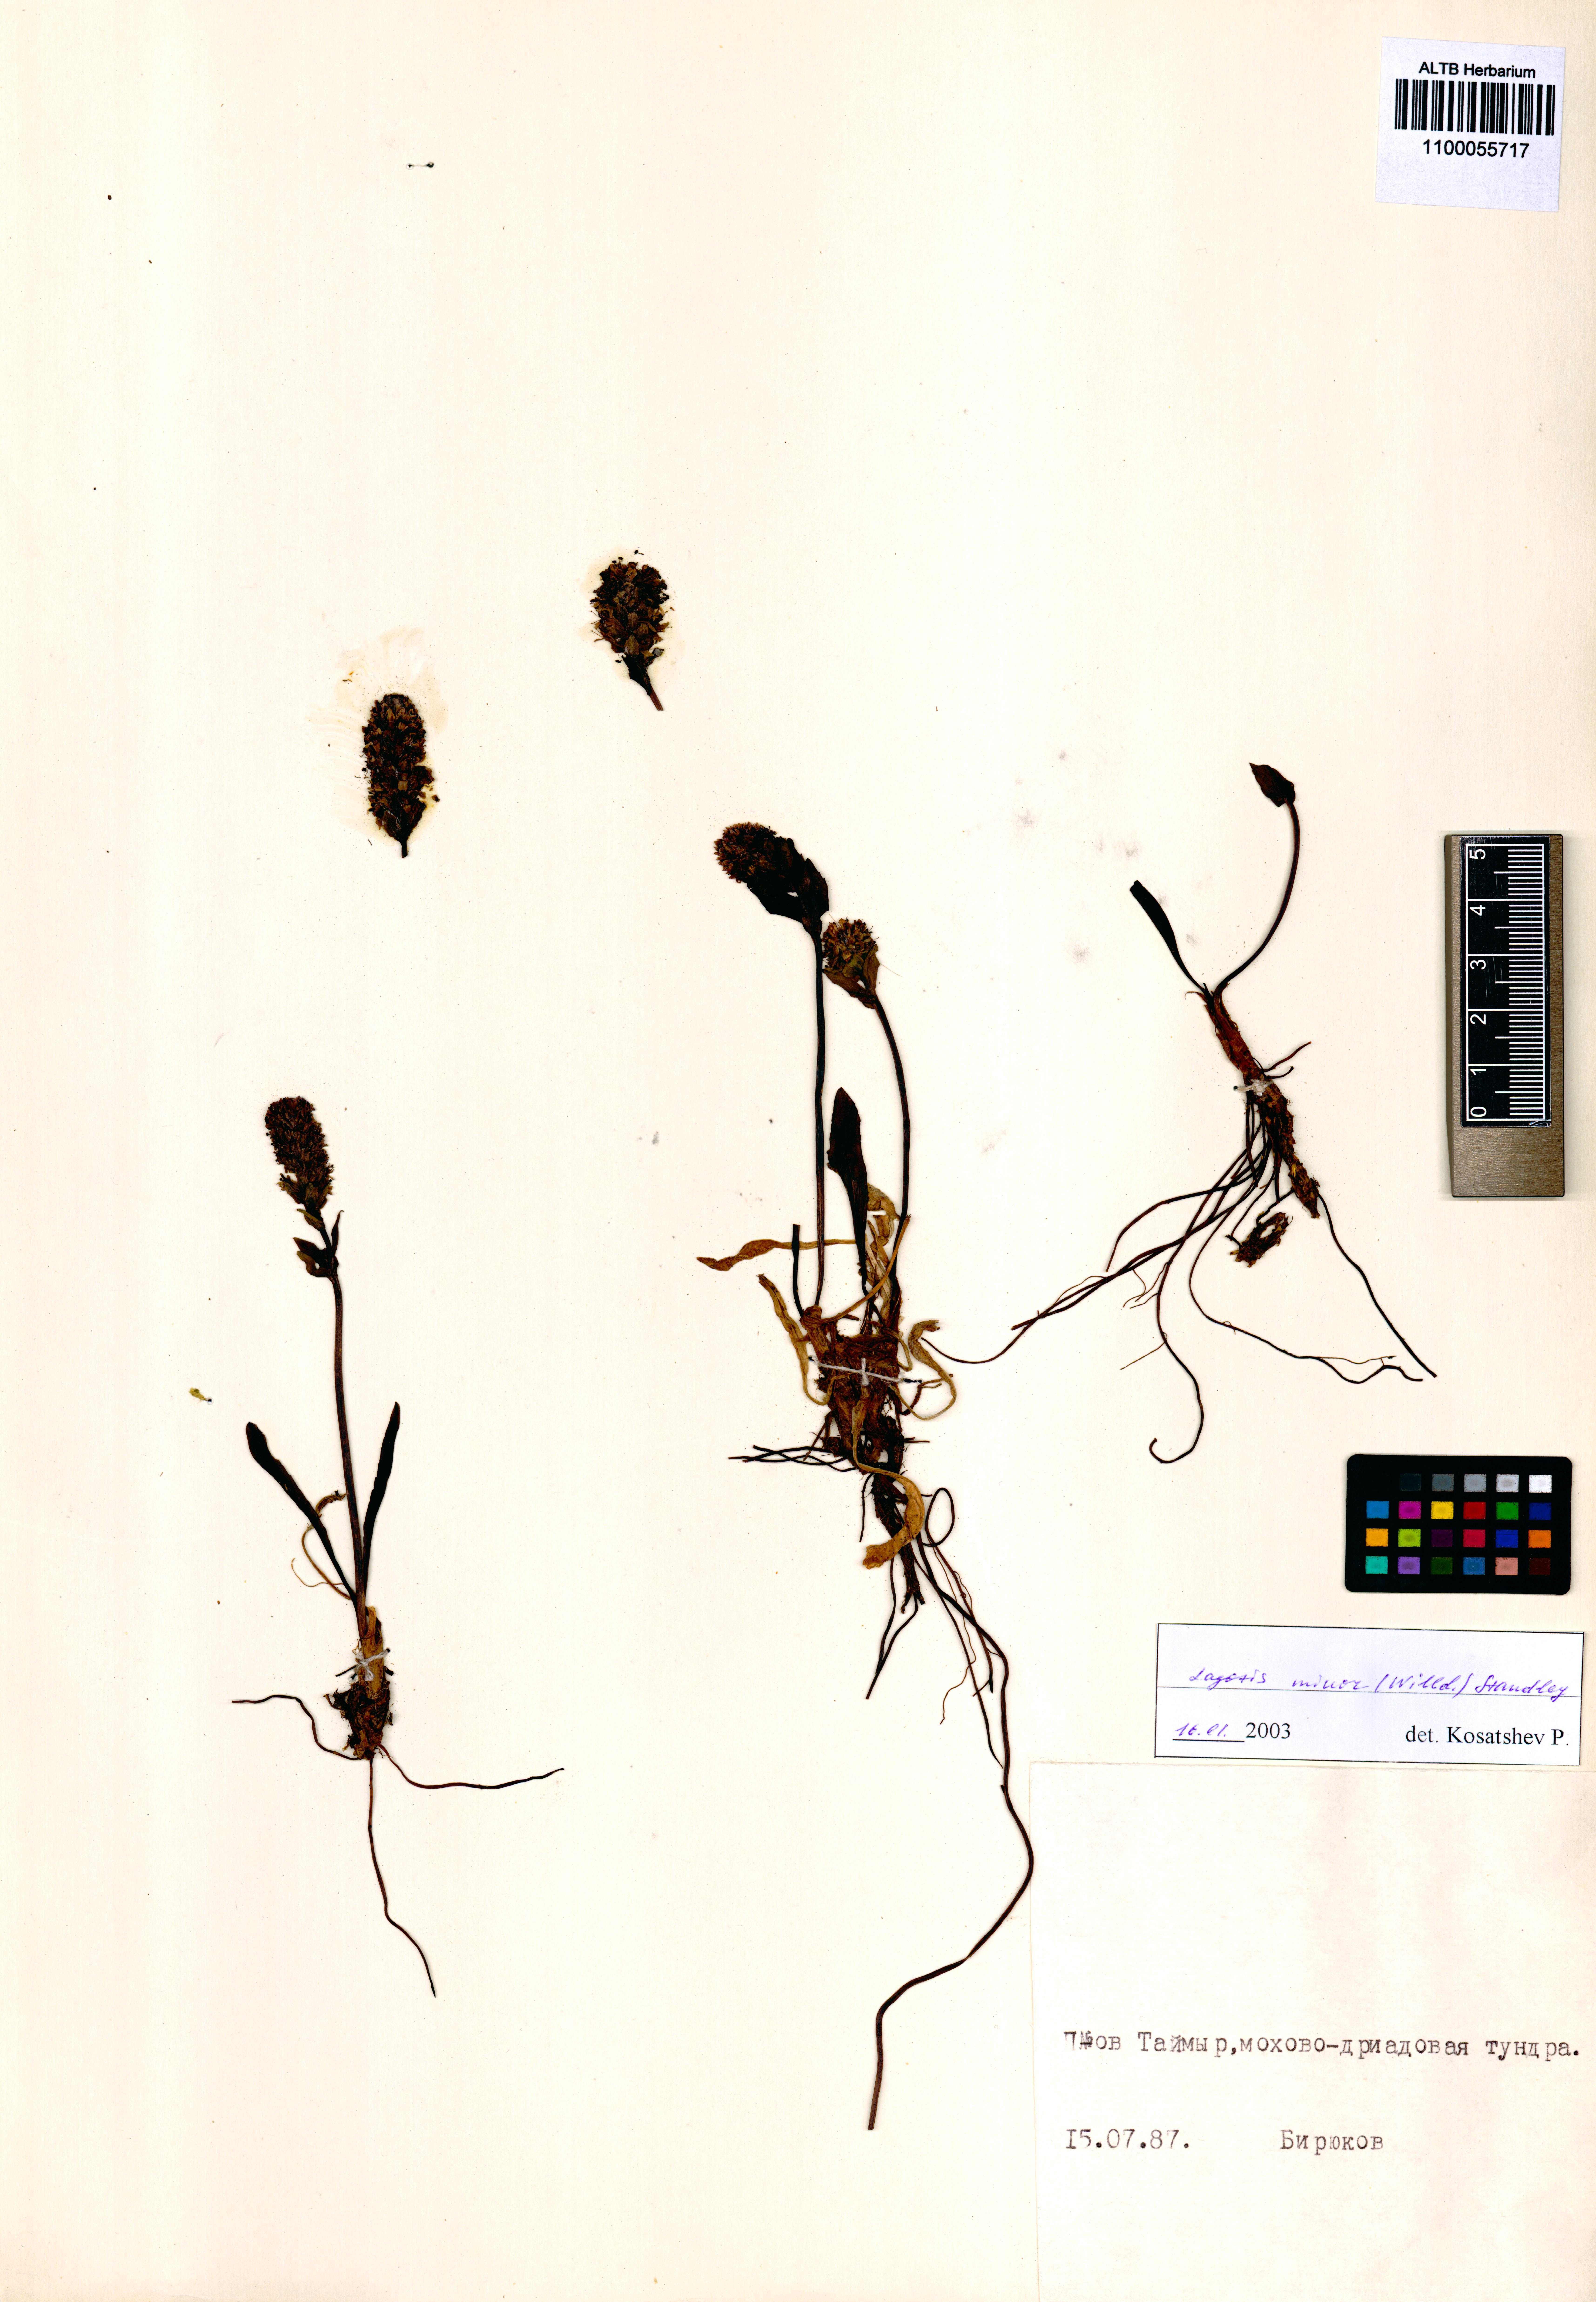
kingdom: Plantae
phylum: Tracheophyta
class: Magnoliopsida
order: Lamiales
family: Plantaginaceae
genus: Lagotis
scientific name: Lagotis glauca
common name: Glaucous weaselsnout
